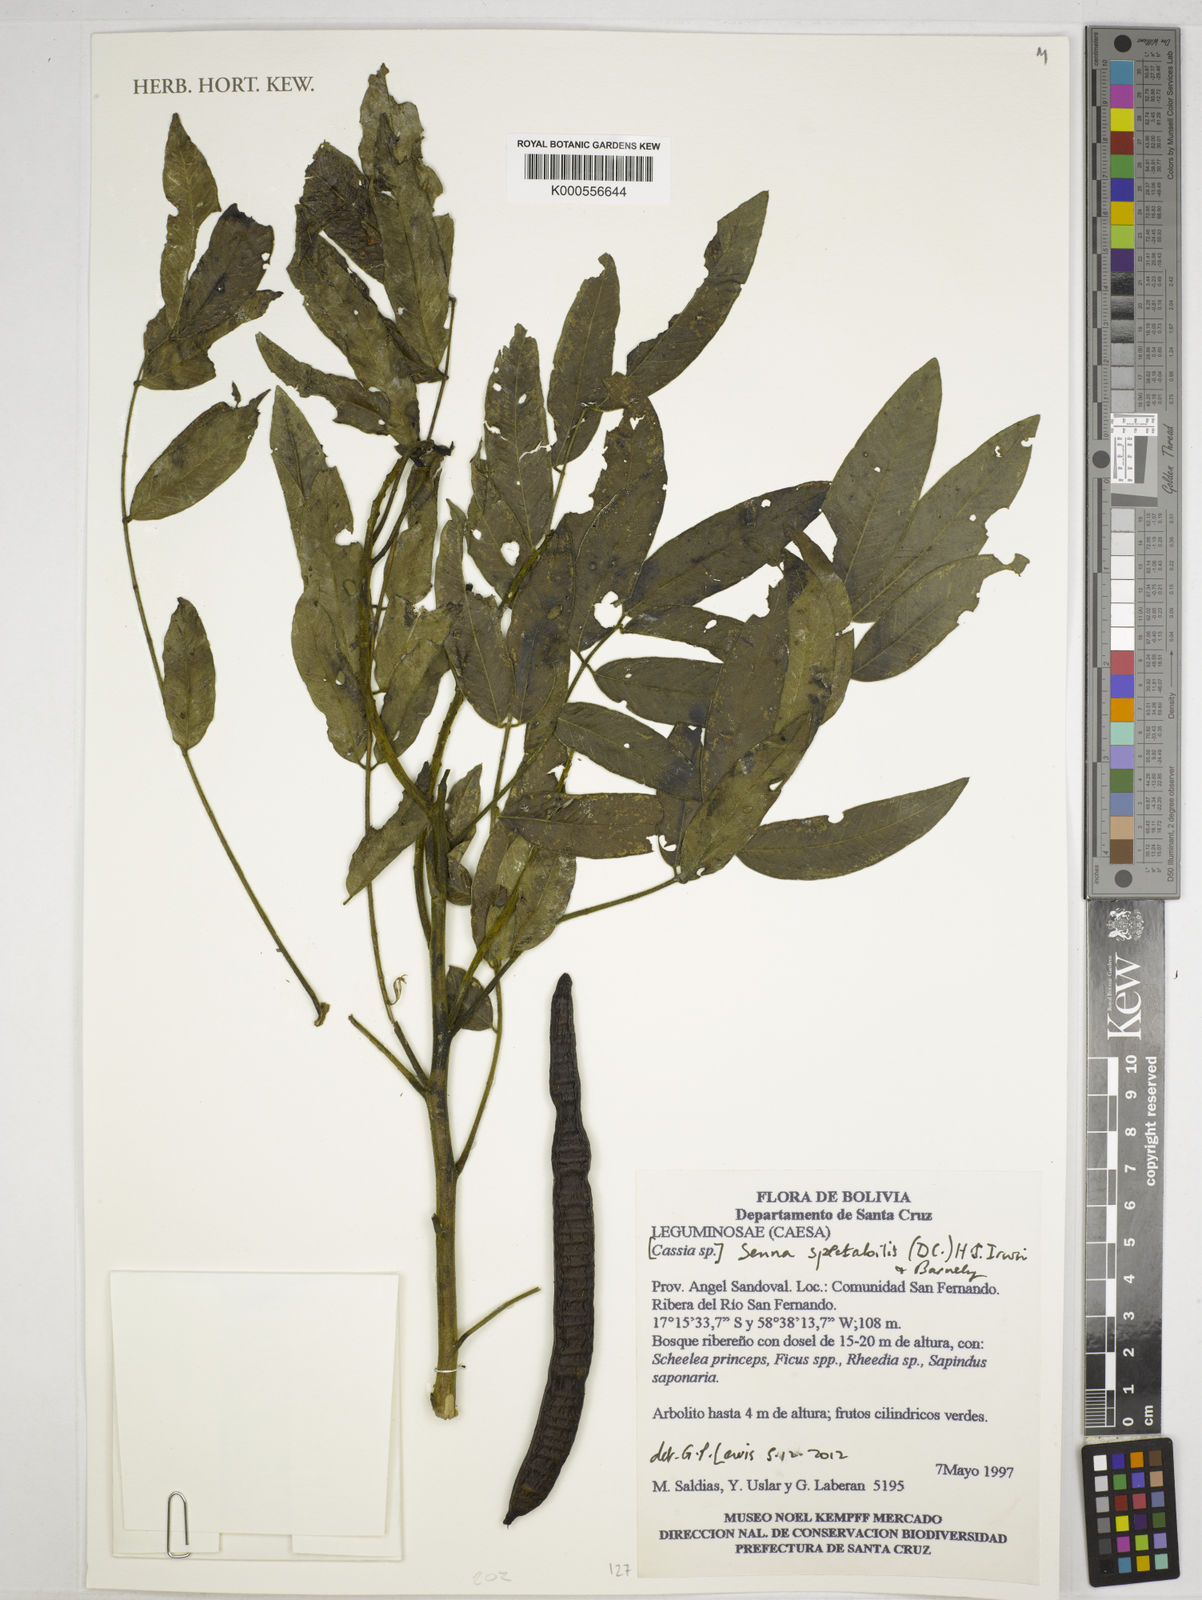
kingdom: Plantae
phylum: Tracheophyta
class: Magnoliopsida
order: Fabales
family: Fabaceae
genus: Senna
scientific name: Senna spectabilis
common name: Casia amarilla
